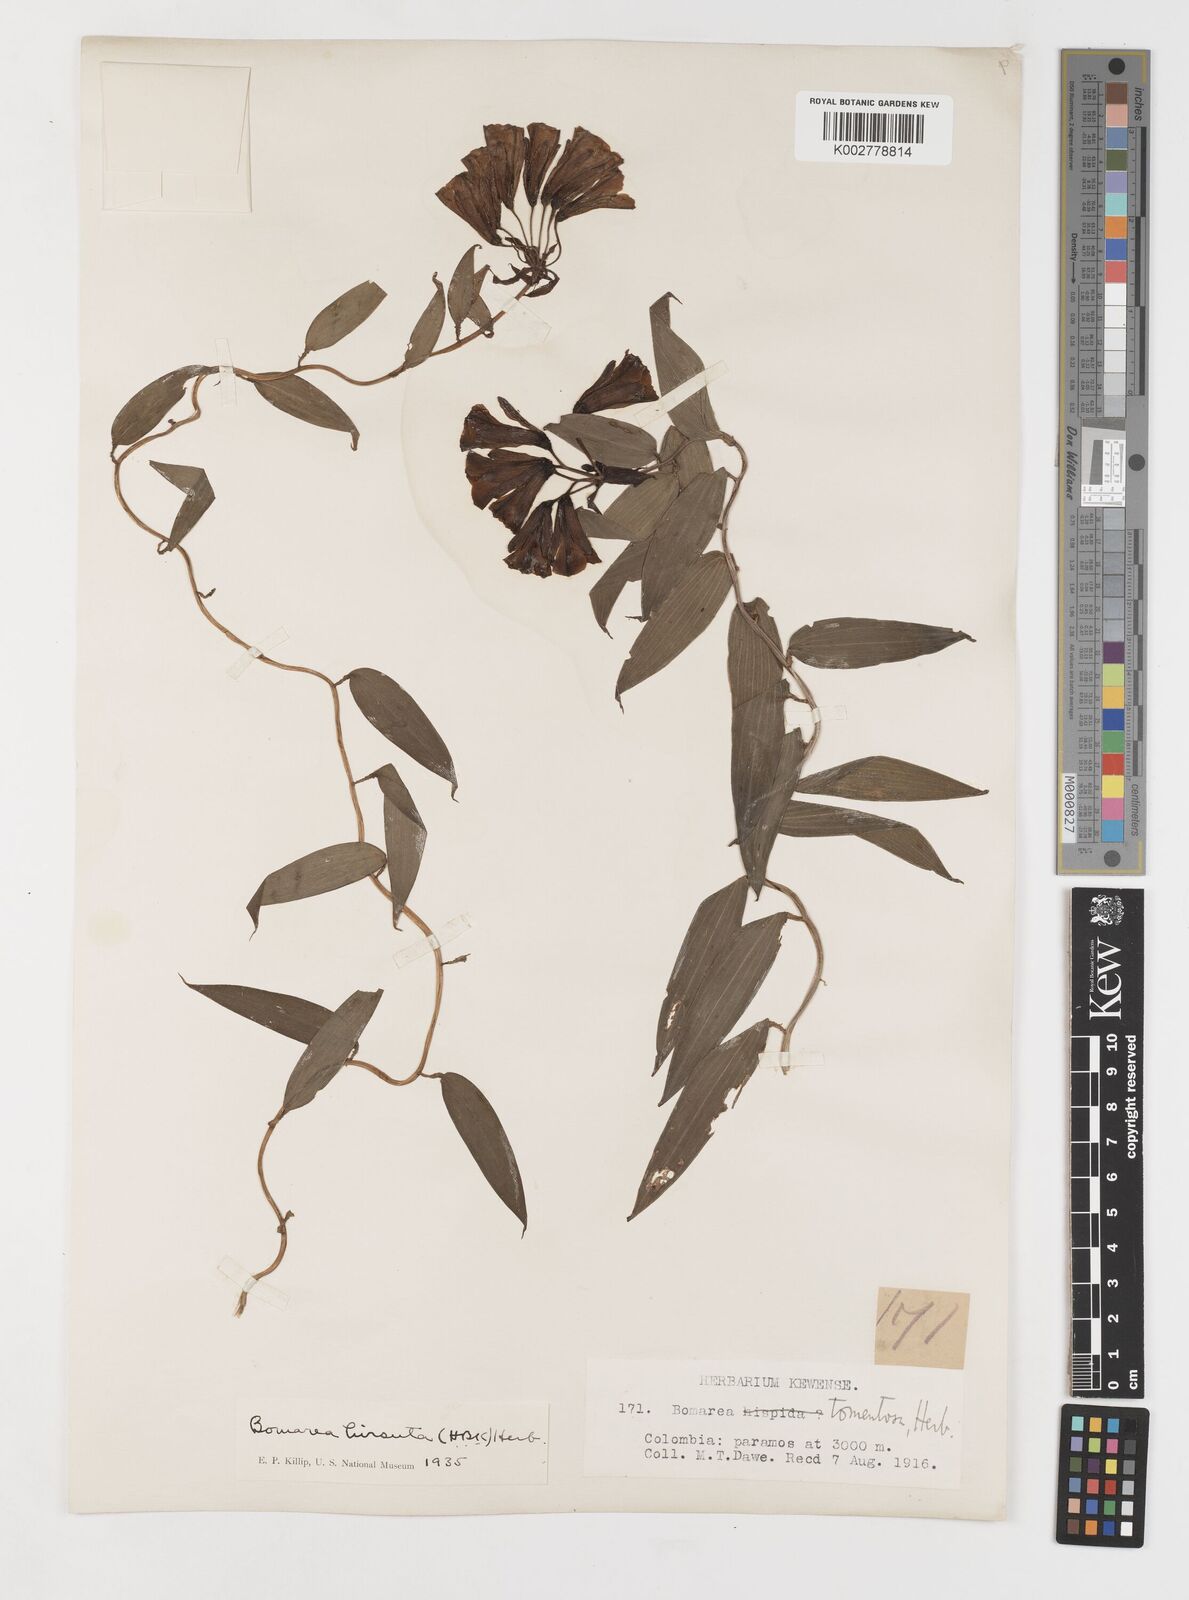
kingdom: Plantae
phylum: Tracheophyta
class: Liliopsida
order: Liliales
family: Alstroemeriaceae
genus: Bomarea
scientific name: Bomarea hirsuta
